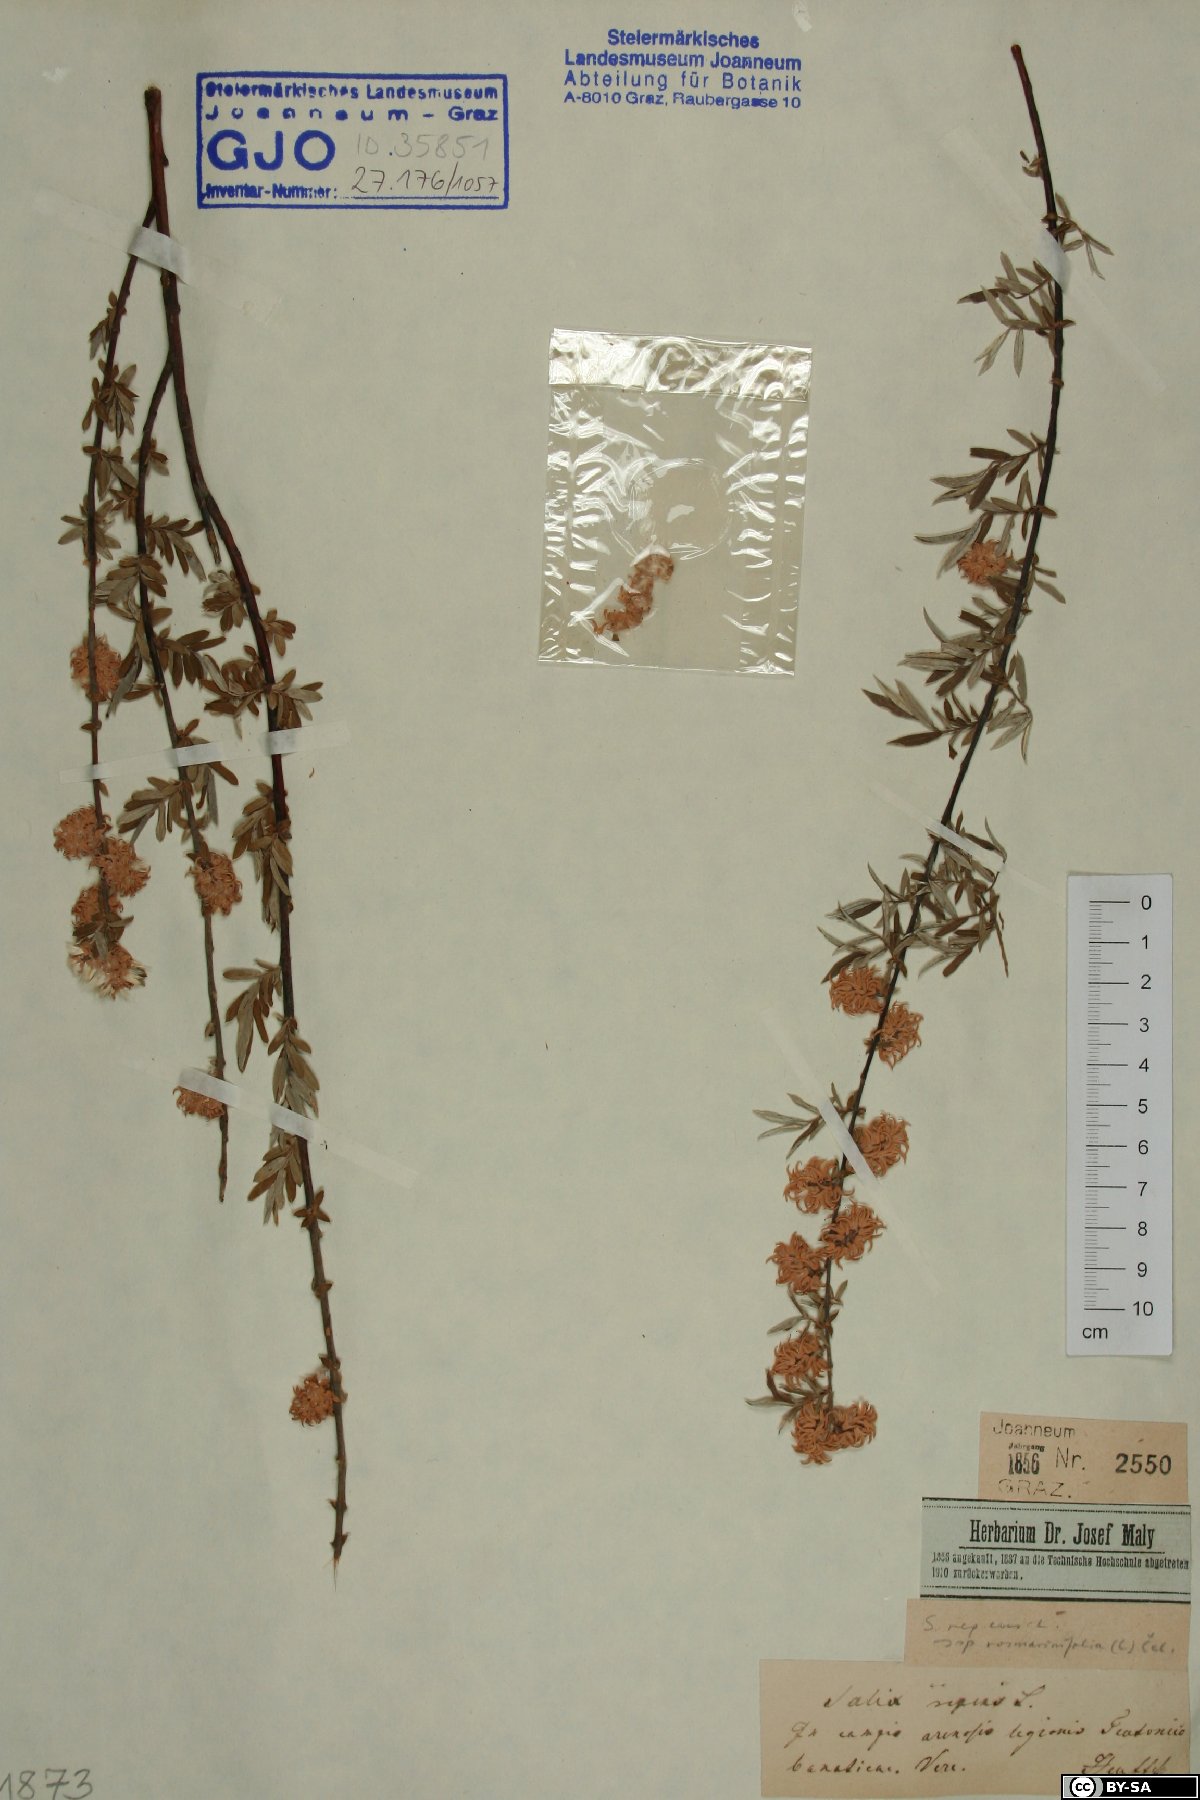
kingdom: Plantae
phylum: Tracheophyta
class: Magnoliopsida
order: Malpighiales
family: Salicaceae
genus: Salix
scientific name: Salix repens
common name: Creeping willow
